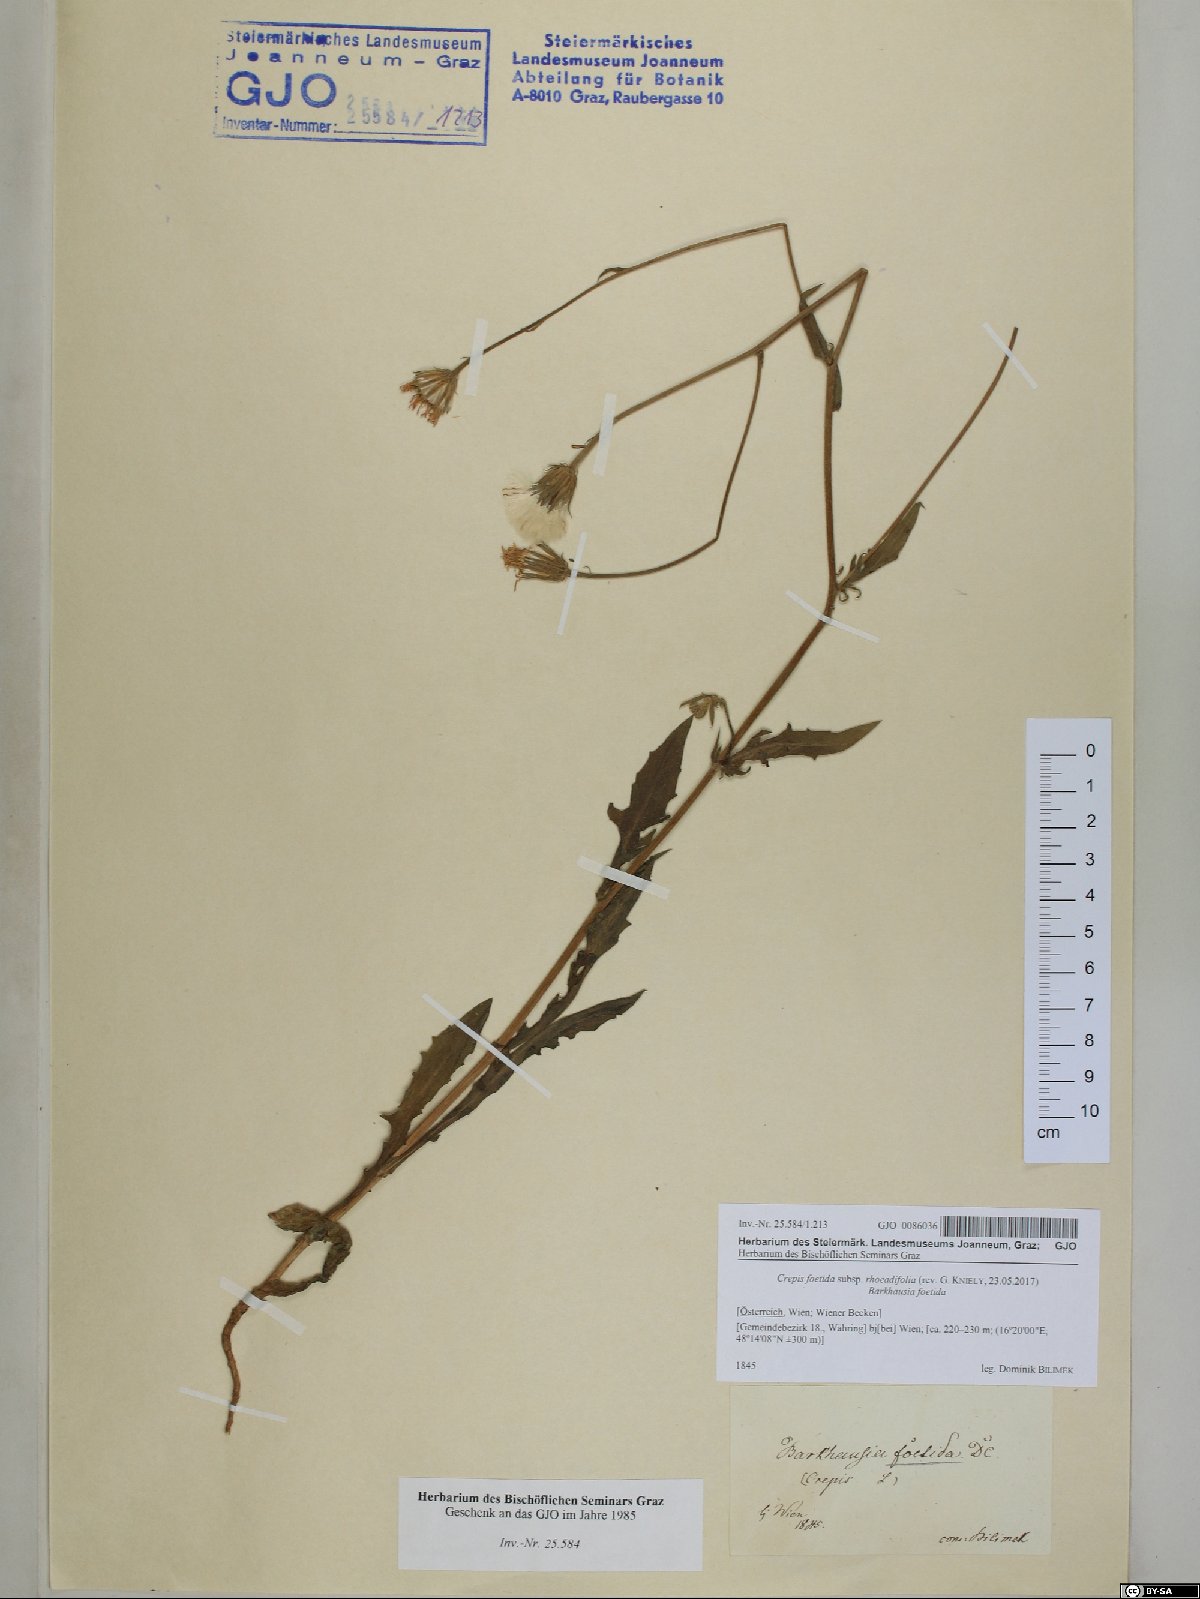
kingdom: Plantae
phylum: Tracheophyta
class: Magnoliopsida
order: Asterales
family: Asteraceae
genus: Crepis
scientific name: Crepis foetida
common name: Stinking hawk's-beard
